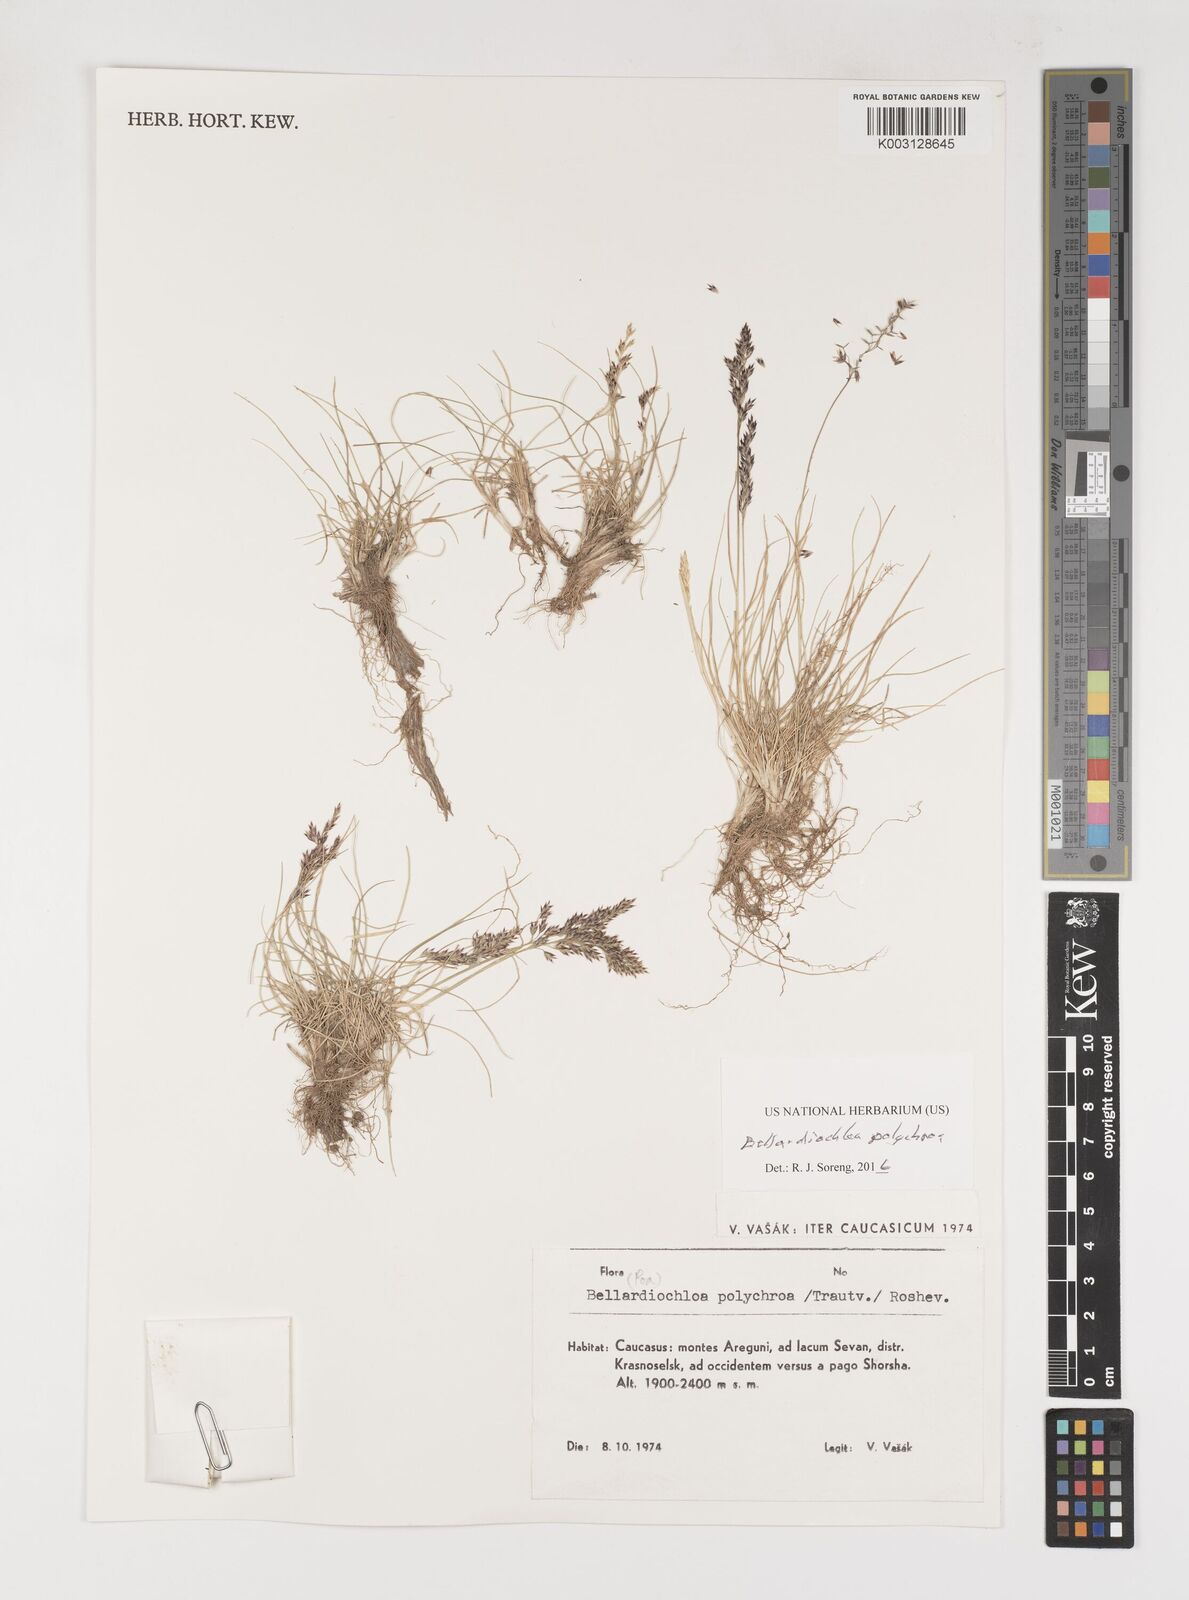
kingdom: Plantae
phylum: Tracheophyta
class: Liliopsida
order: Poales
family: Poaceae
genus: Bellardiochloa
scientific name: Bellardiochloa polychroa
